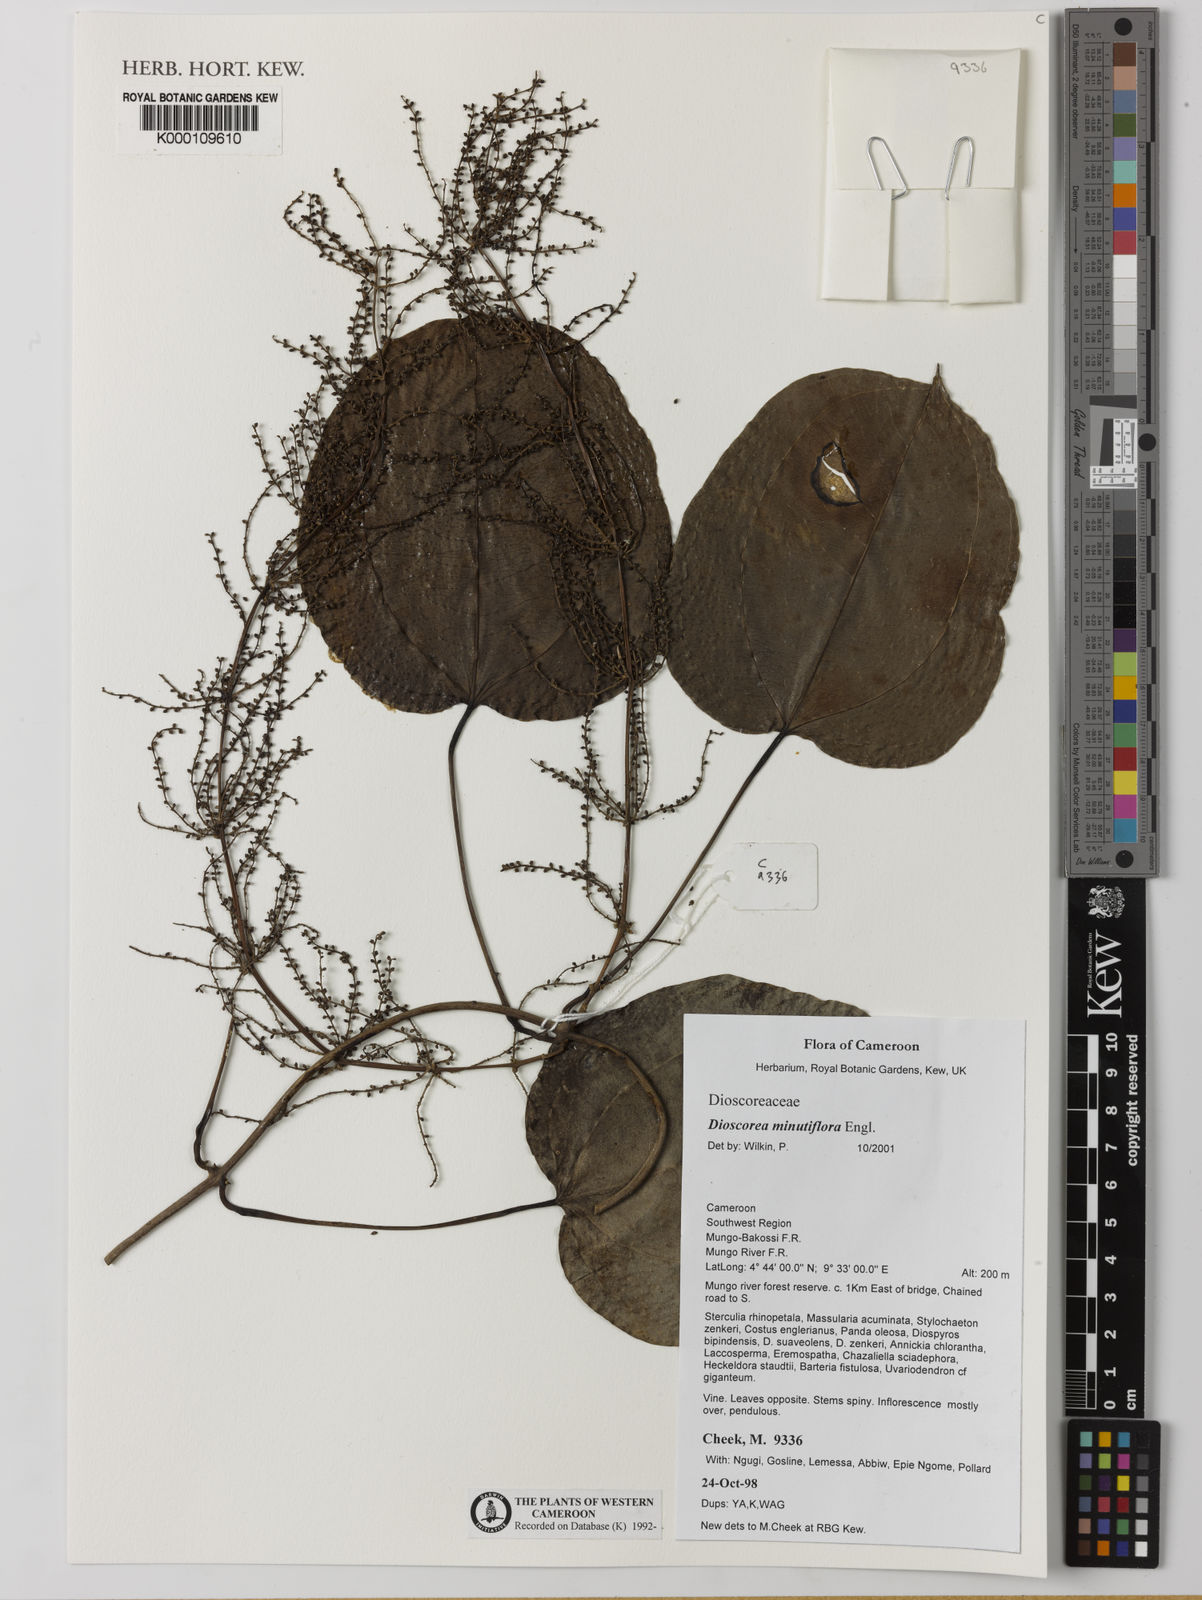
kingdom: Plantae
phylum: Tracheophyta
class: Liliopsida
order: Dioscoreales
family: Dioscoreaceae
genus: Dioscorea
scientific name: Dioscorea minutiflora
